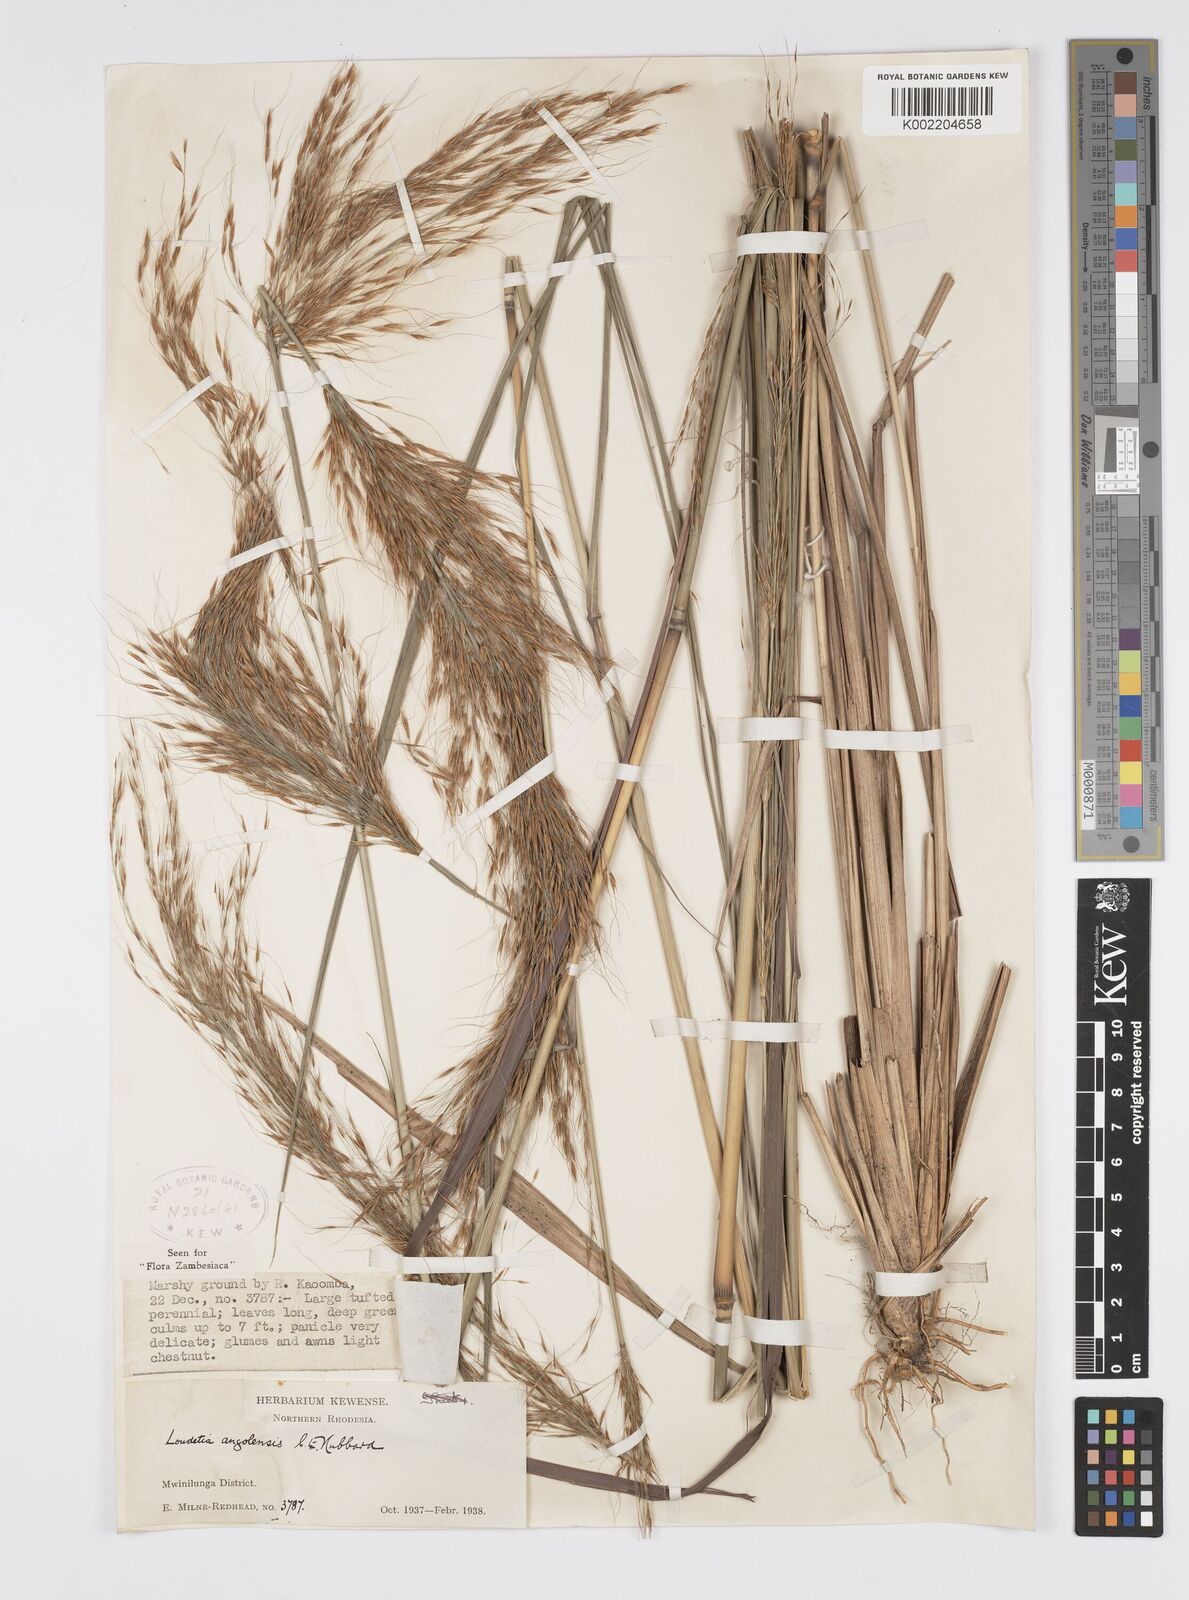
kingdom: Plantae
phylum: Tracheophyta
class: Liliopsida
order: Poales
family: Poaceae
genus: Loudetia
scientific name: Loudetia angolensis
